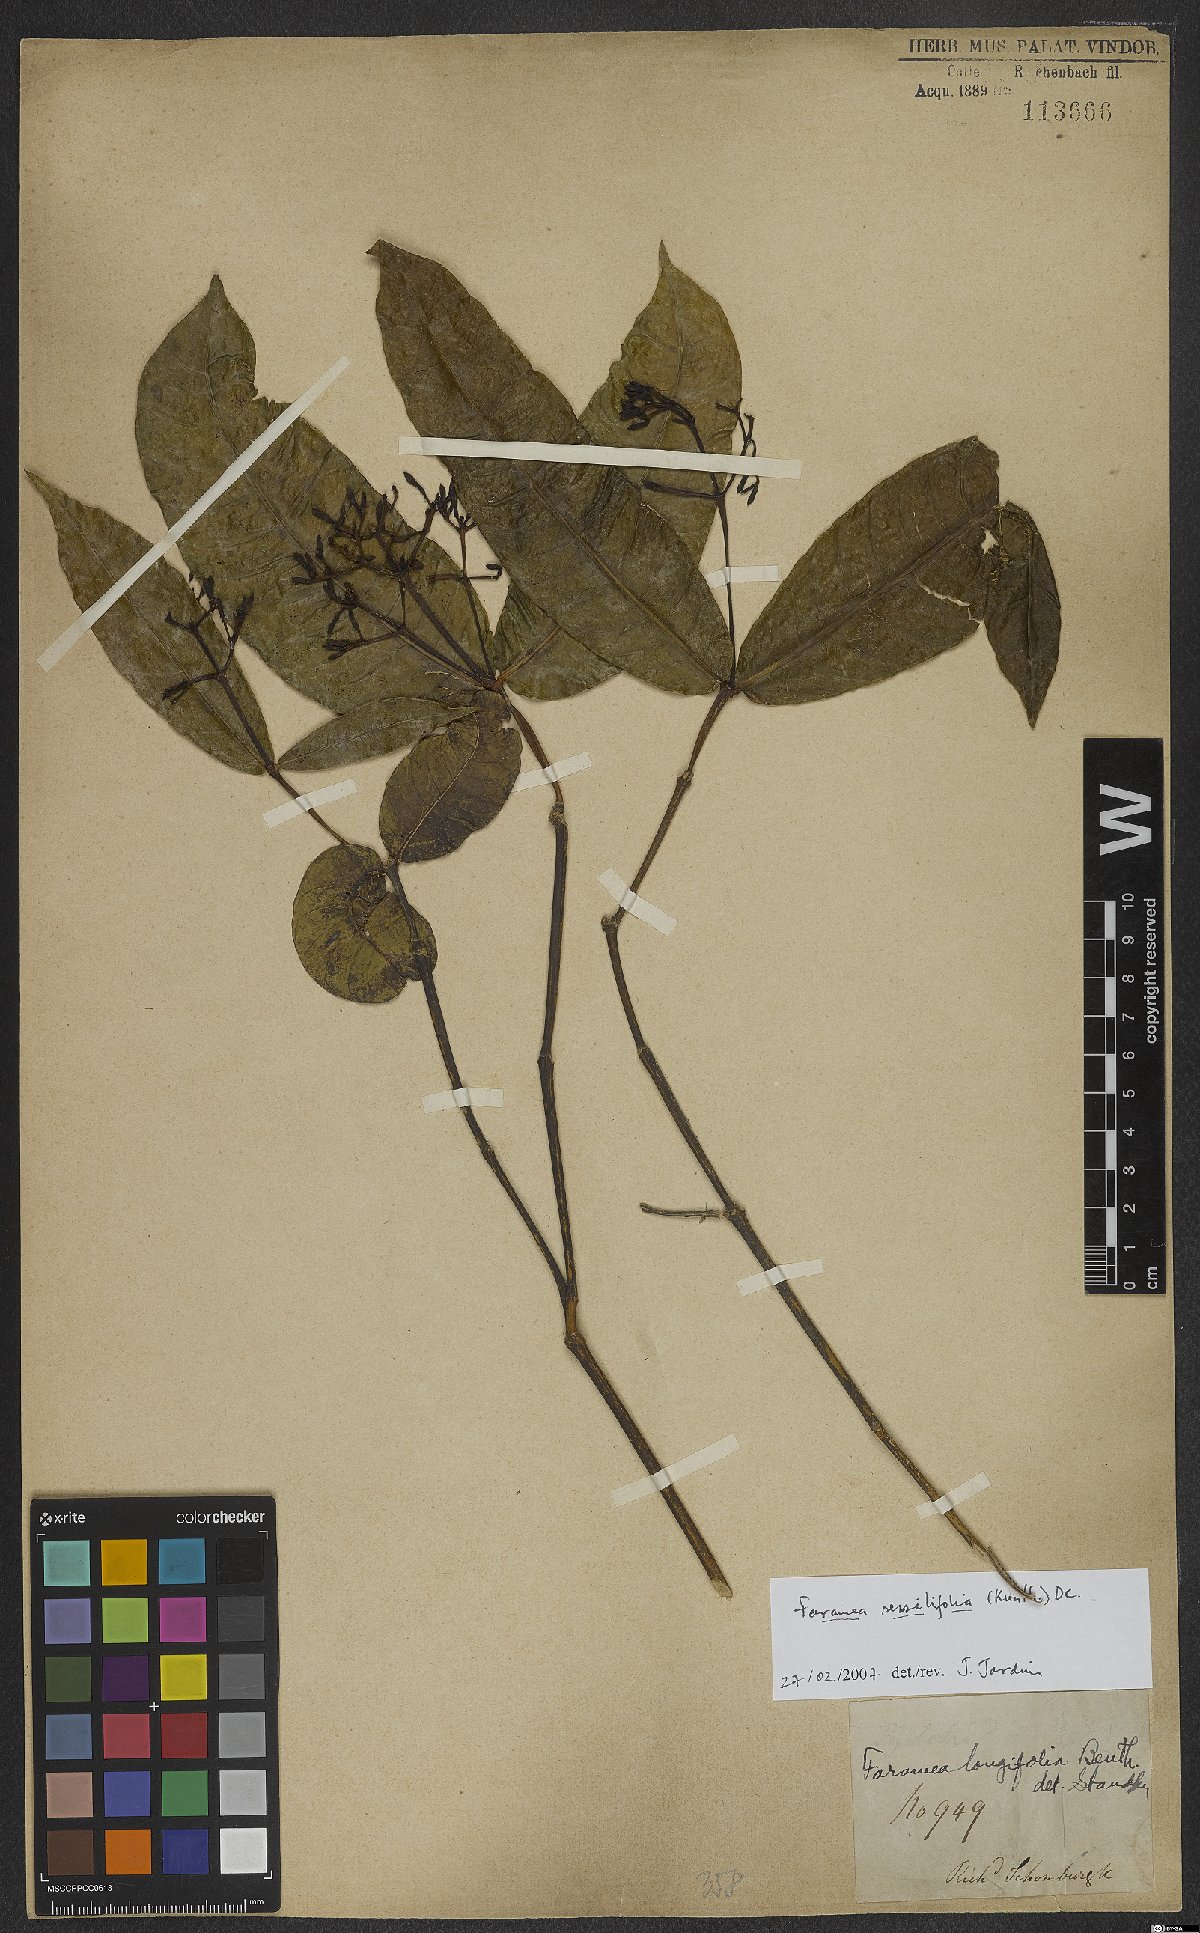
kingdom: Plantae
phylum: Tracheophyta
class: Magnoliopsida
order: Gentianales
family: Rubiaceae
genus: Faramea
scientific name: Faramea sessilifolia
